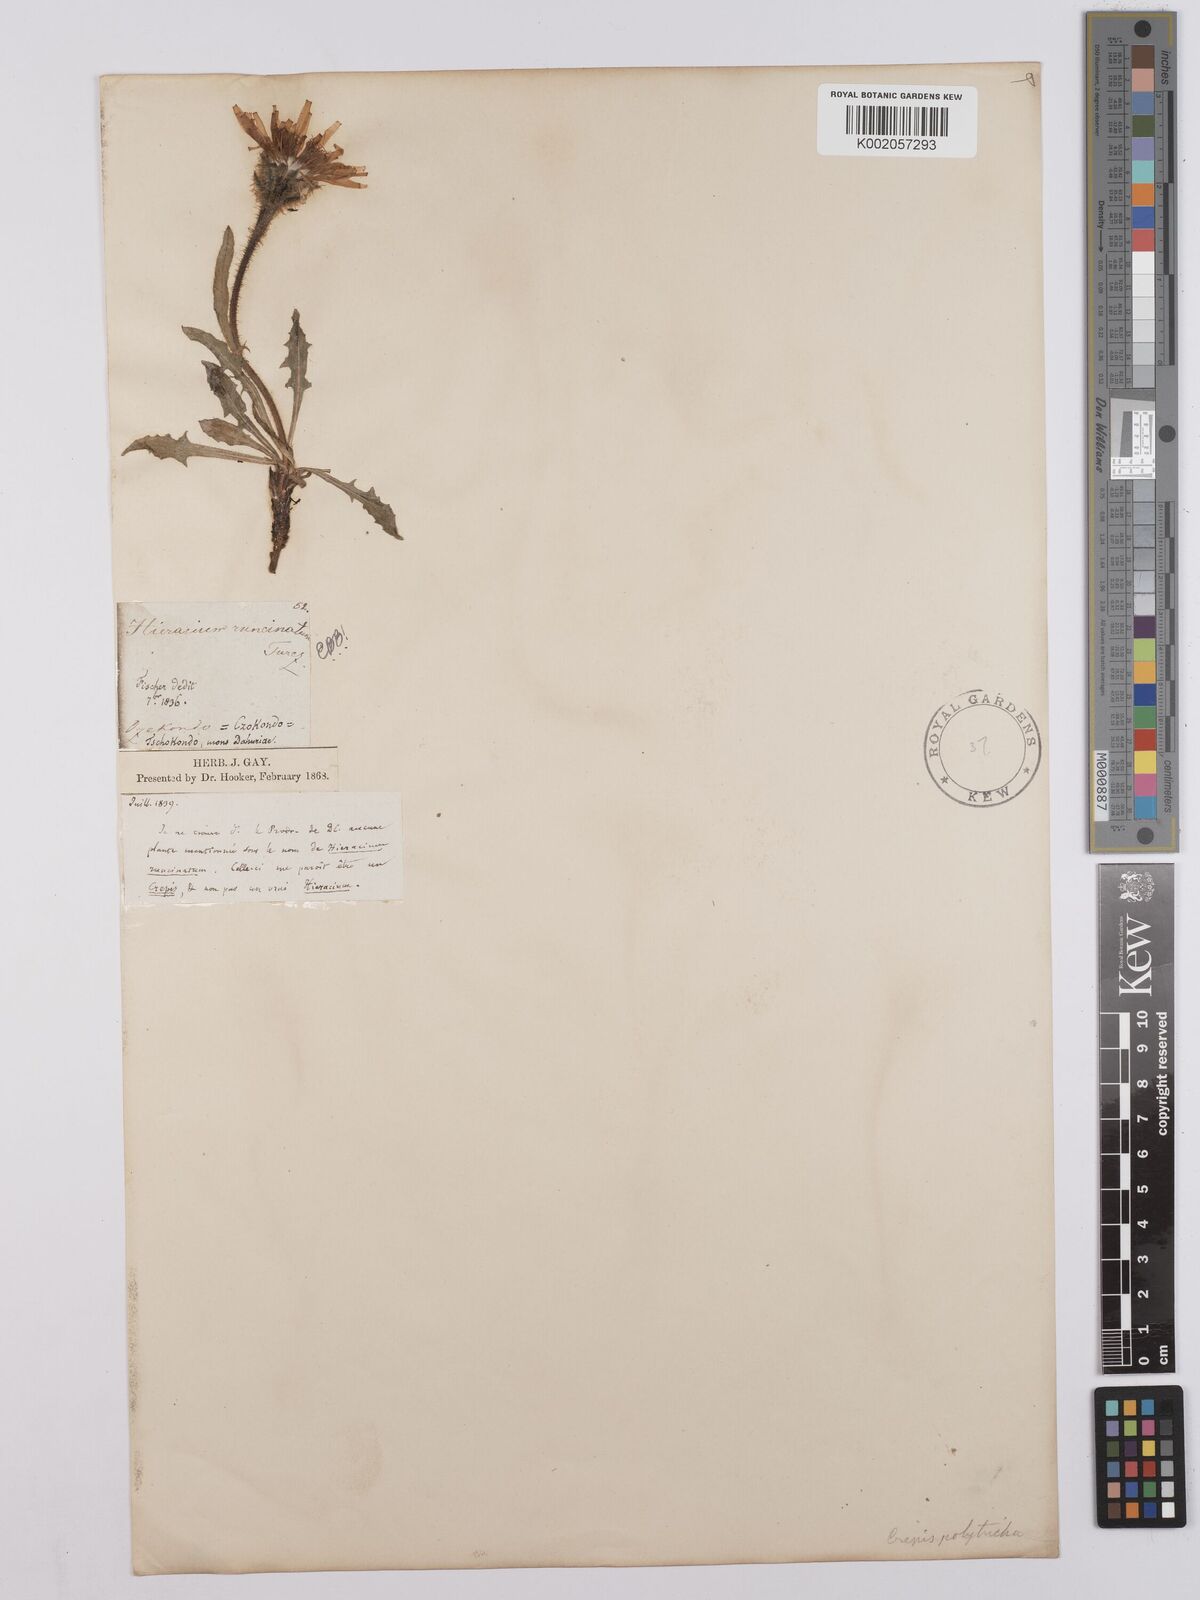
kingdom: Plantae
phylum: Tracheophyta
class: Magnoliopsida
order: Asterales
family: Asteraceae
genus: Crepis
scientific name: Crepis chrysantha
